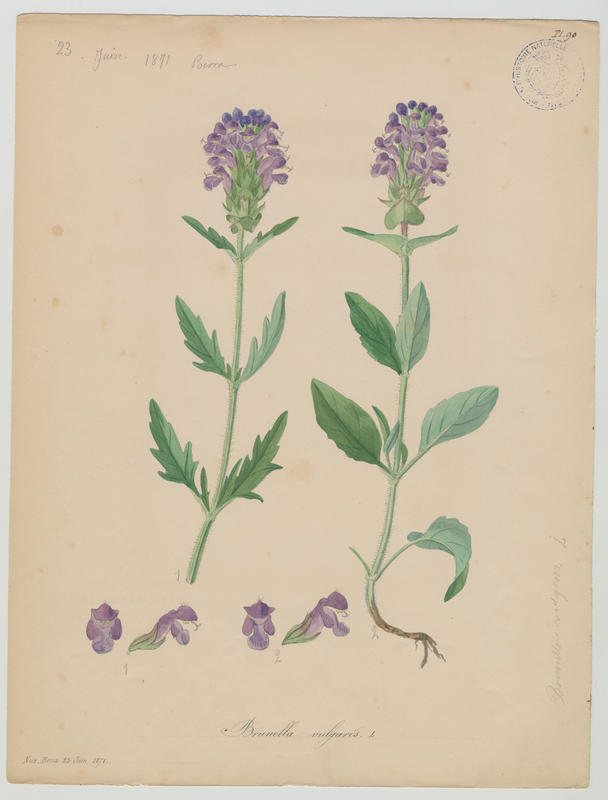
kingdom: Plantae
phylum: Tracheophyta
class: Magnoliopsida
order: Lamiales
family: Lamiaceae
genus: Prunella
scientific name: Prunella vulgaris
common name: Heal-all
